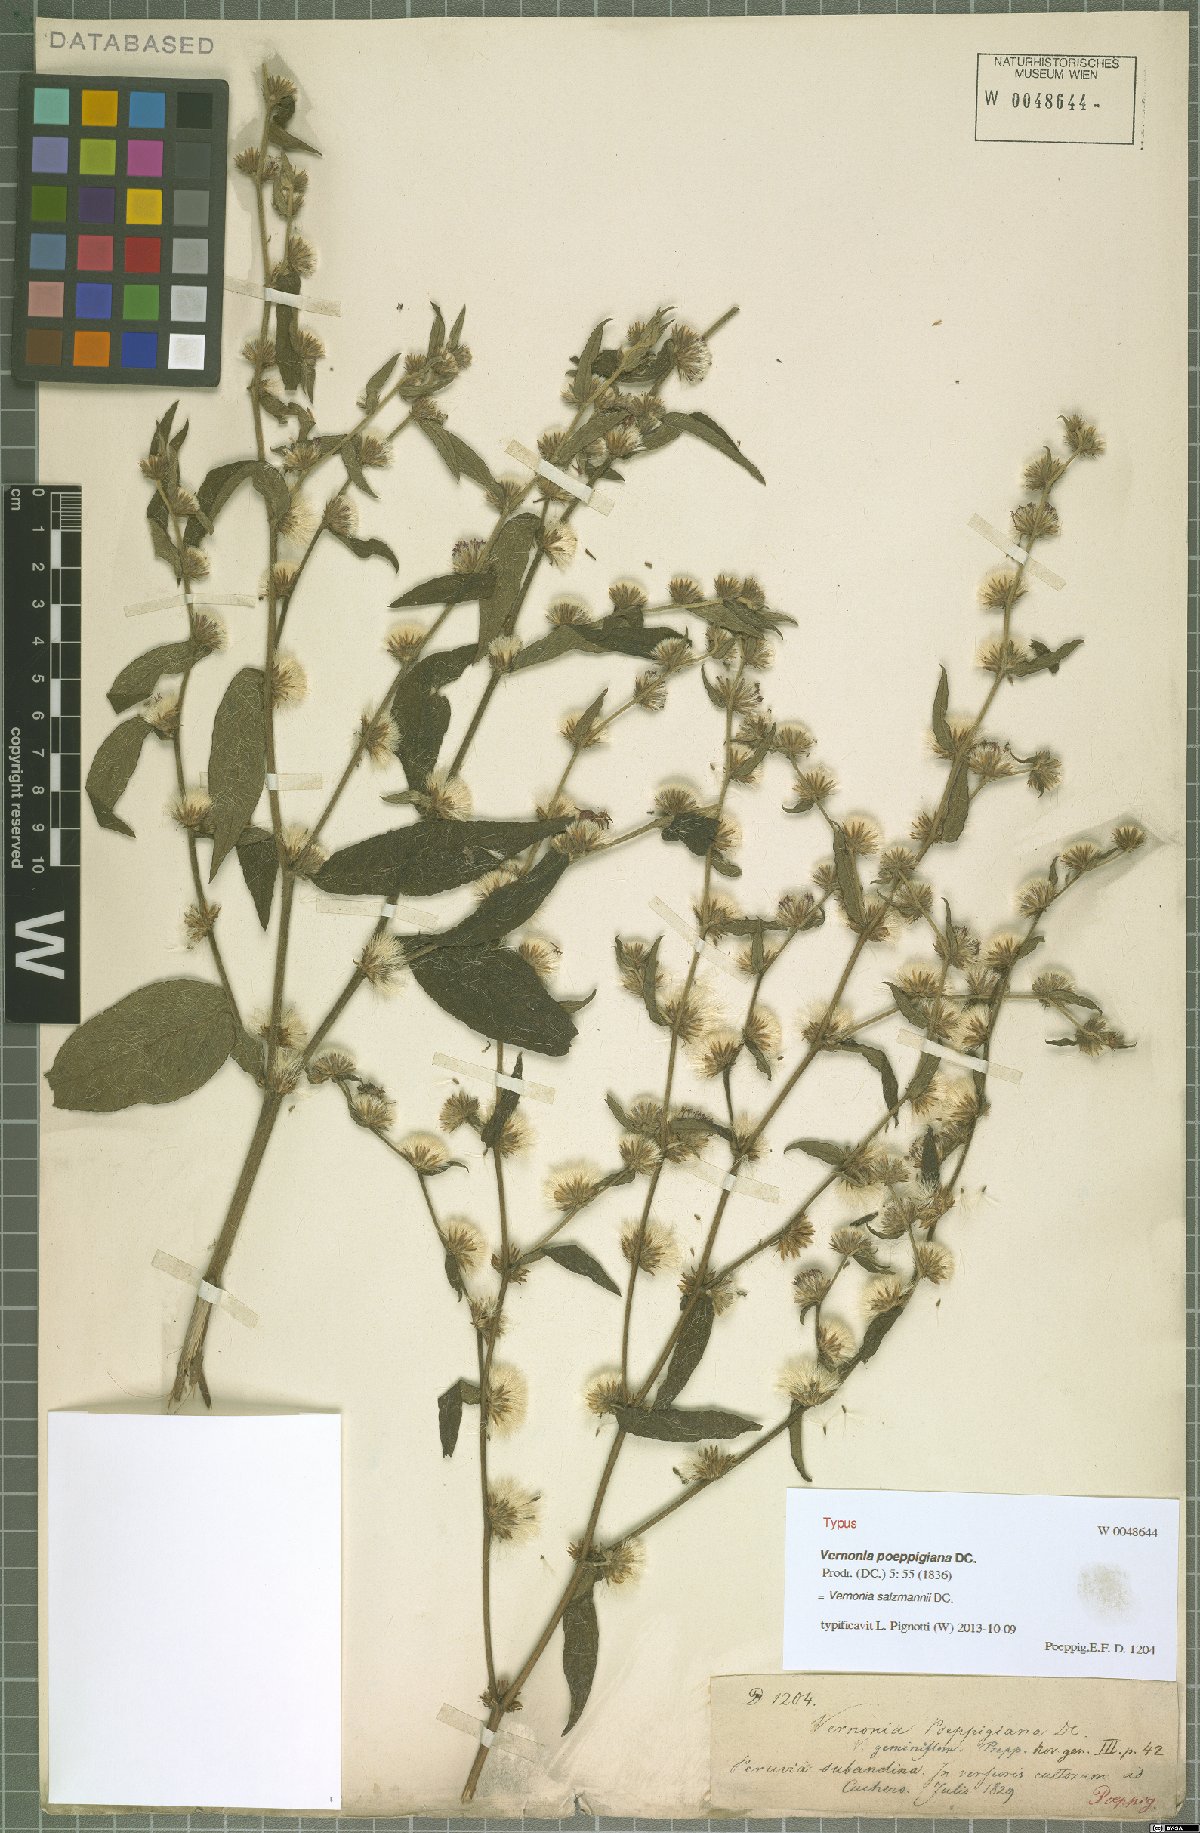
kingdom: Plantae
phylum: Tracheophyta
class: Magnoliopsida
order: Asterales
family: Asteraceae
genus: Lepidaploa
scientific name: Lepidaploa salzmannii
